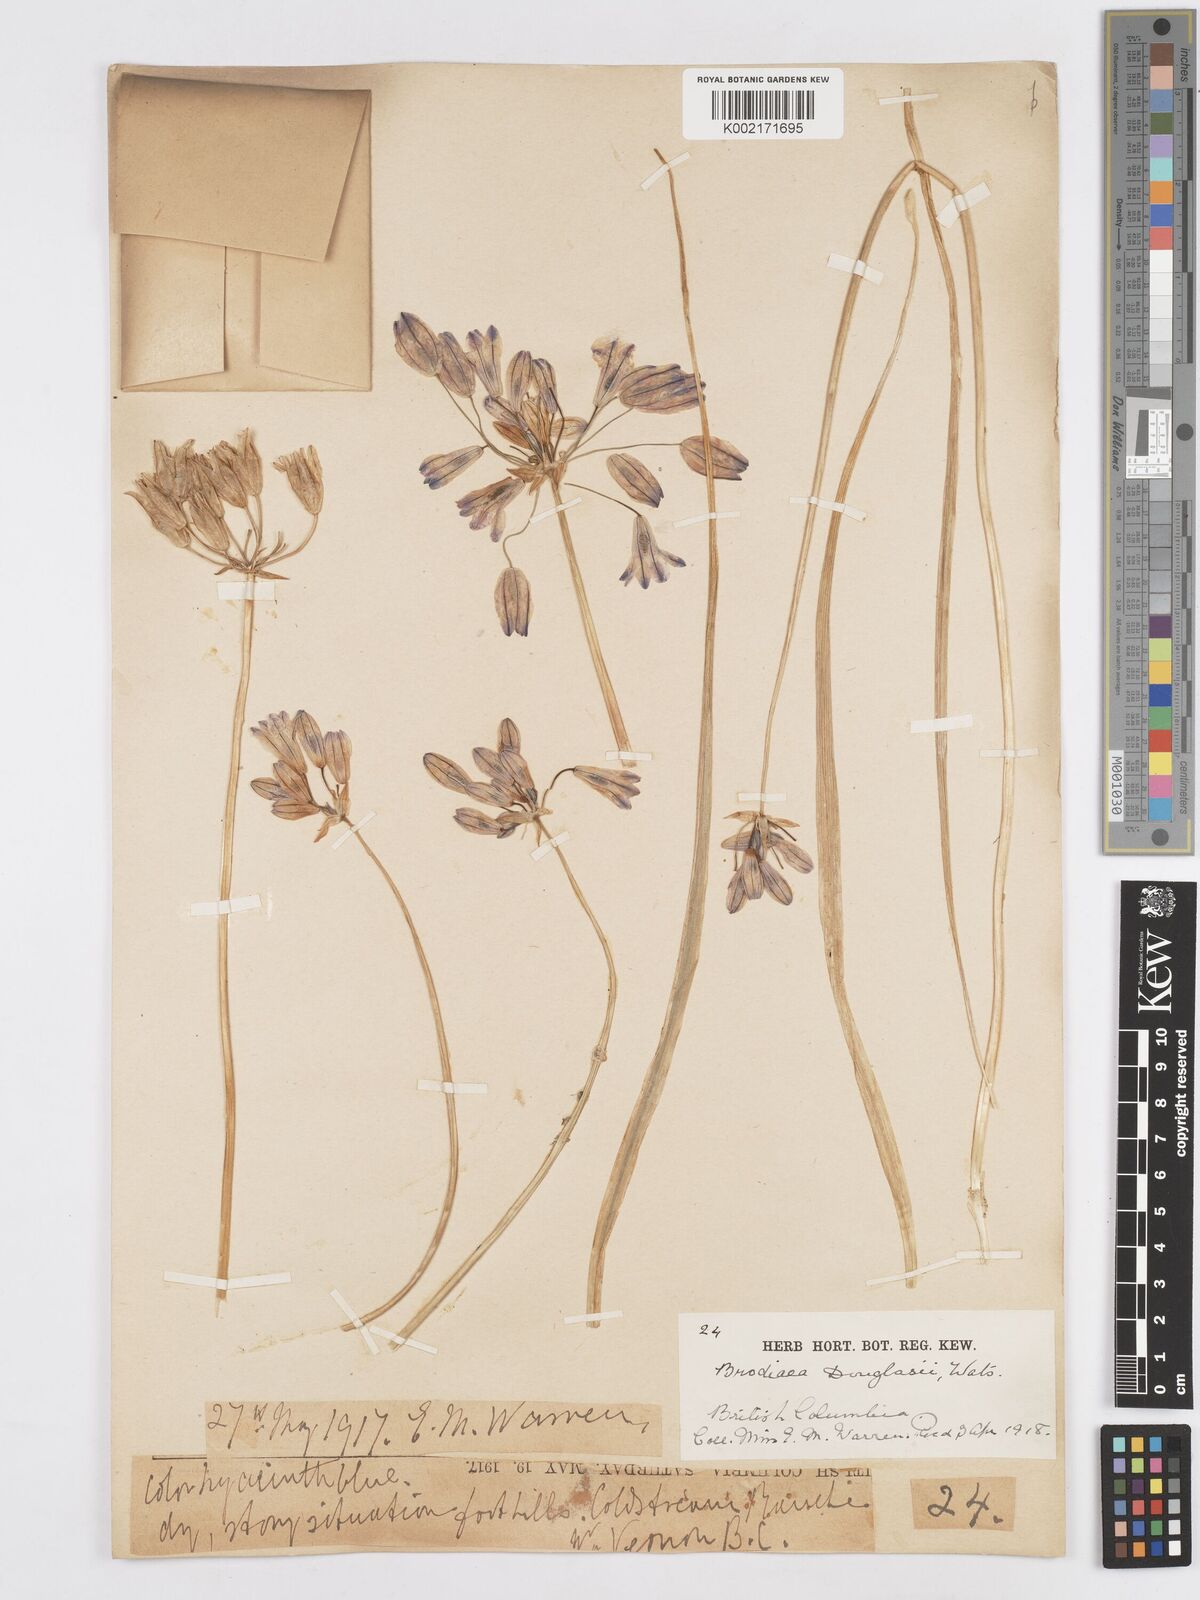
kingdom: Plantae
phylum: Tracheophyta
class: Liliopsida
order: Asparagales
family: Asparagaceae
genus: Triteleia
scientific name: Triteleia grandiflora
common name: Wild hyacinth
